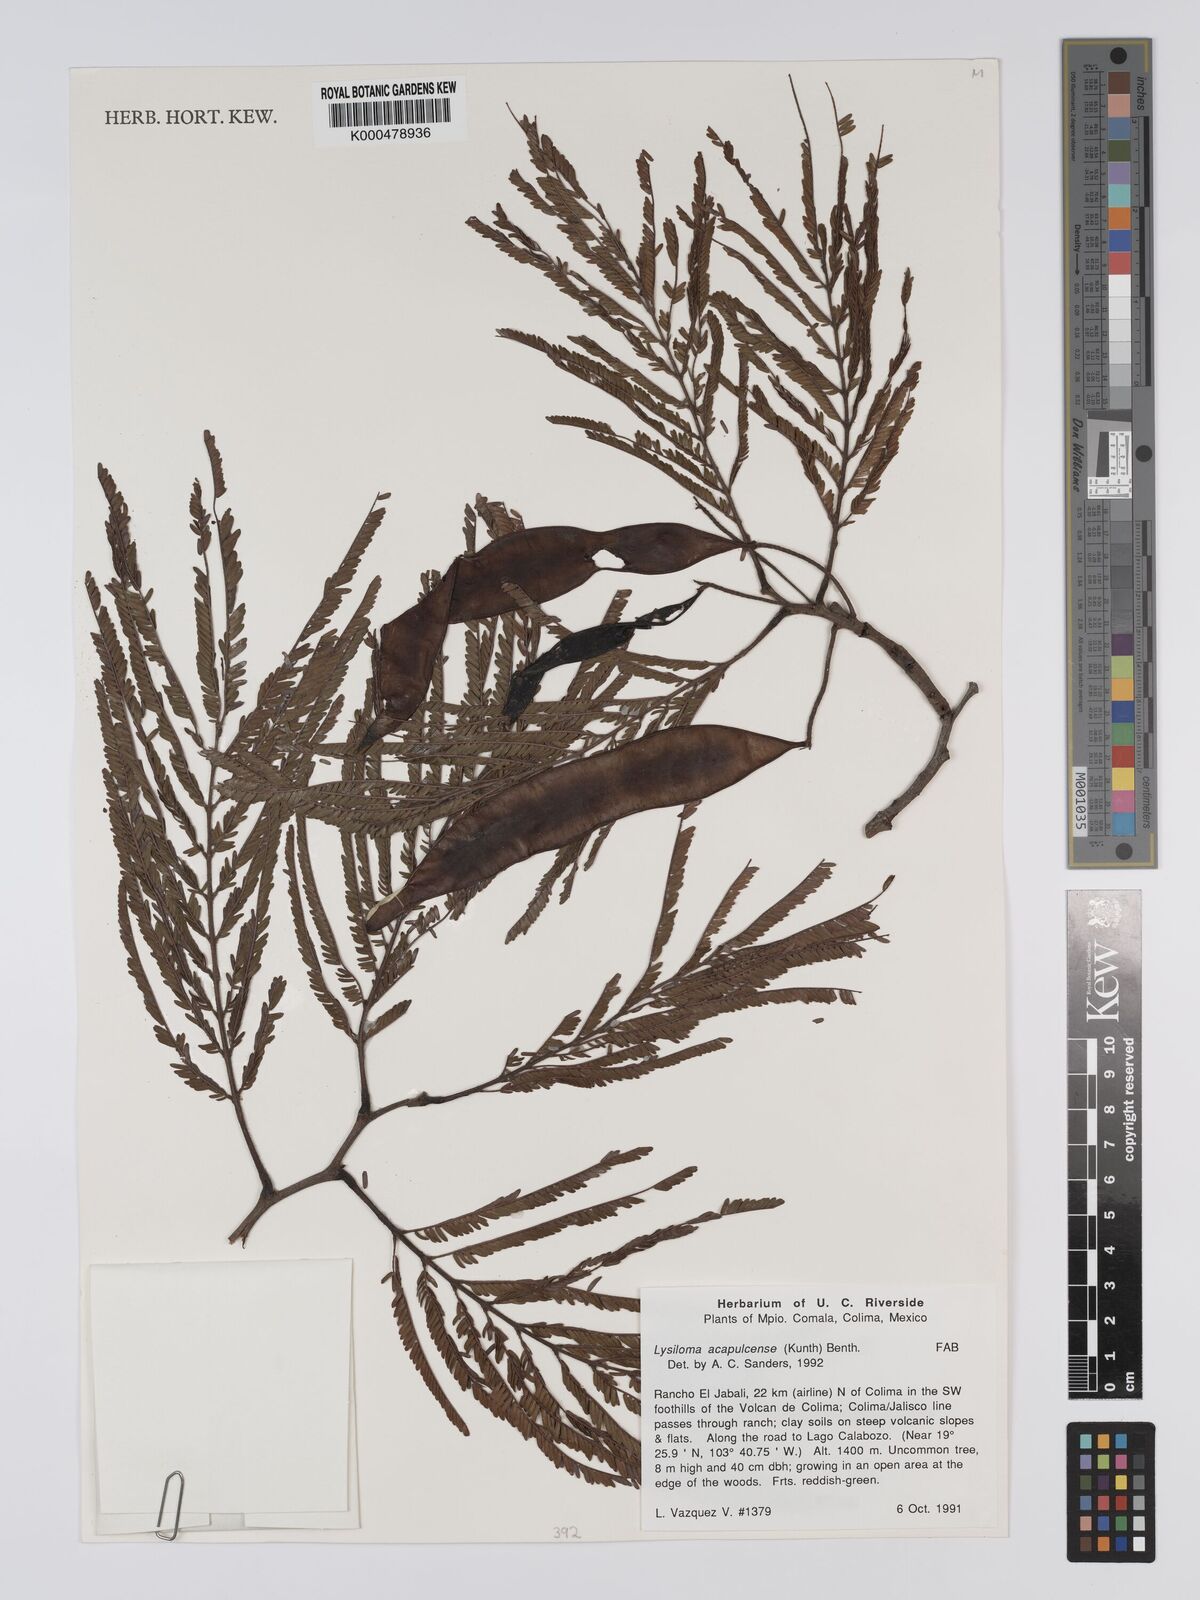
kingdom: Plantae
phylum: Tracheophyta
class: Magnoliopsida
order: Fabales
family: Fabaceae
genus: Lysiloma
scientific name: Lysiloma
